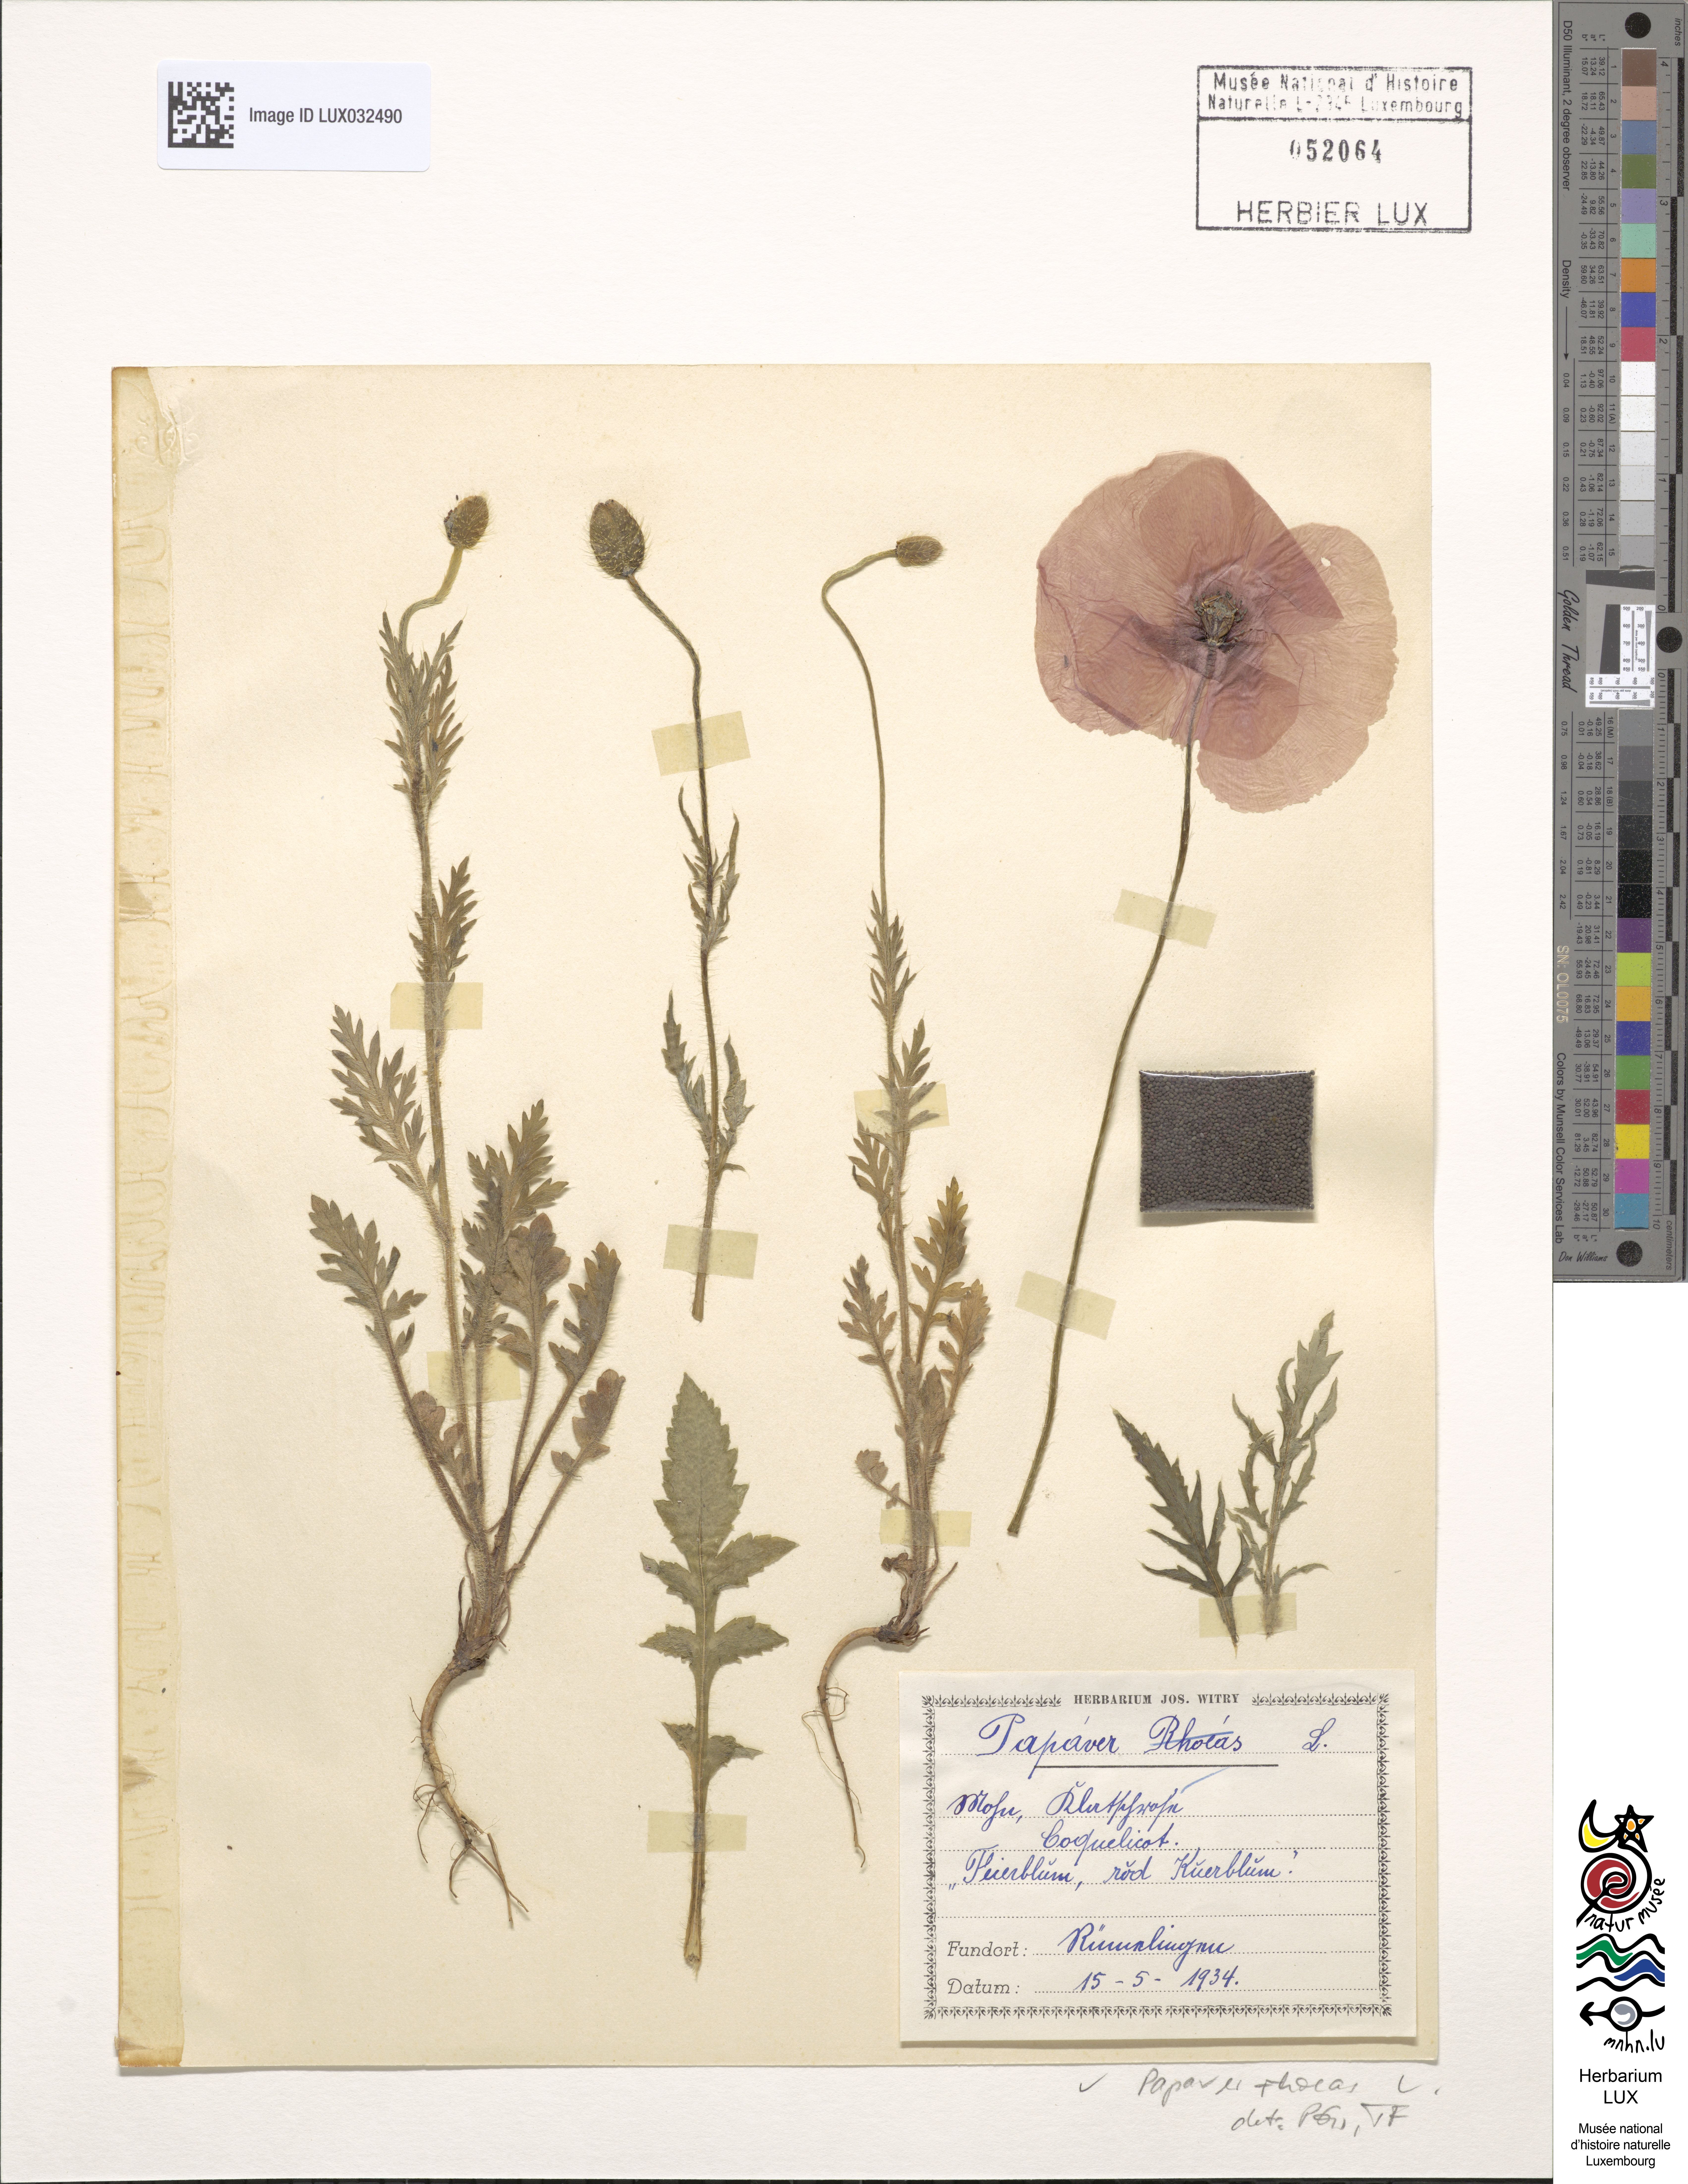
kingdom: Plantae
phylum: Tracheophyta
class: Magnoliopsida
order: Ranunculales
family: Papaveraceae
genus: Papaver
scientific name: Papaver rhoeas
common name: Corn poppy
